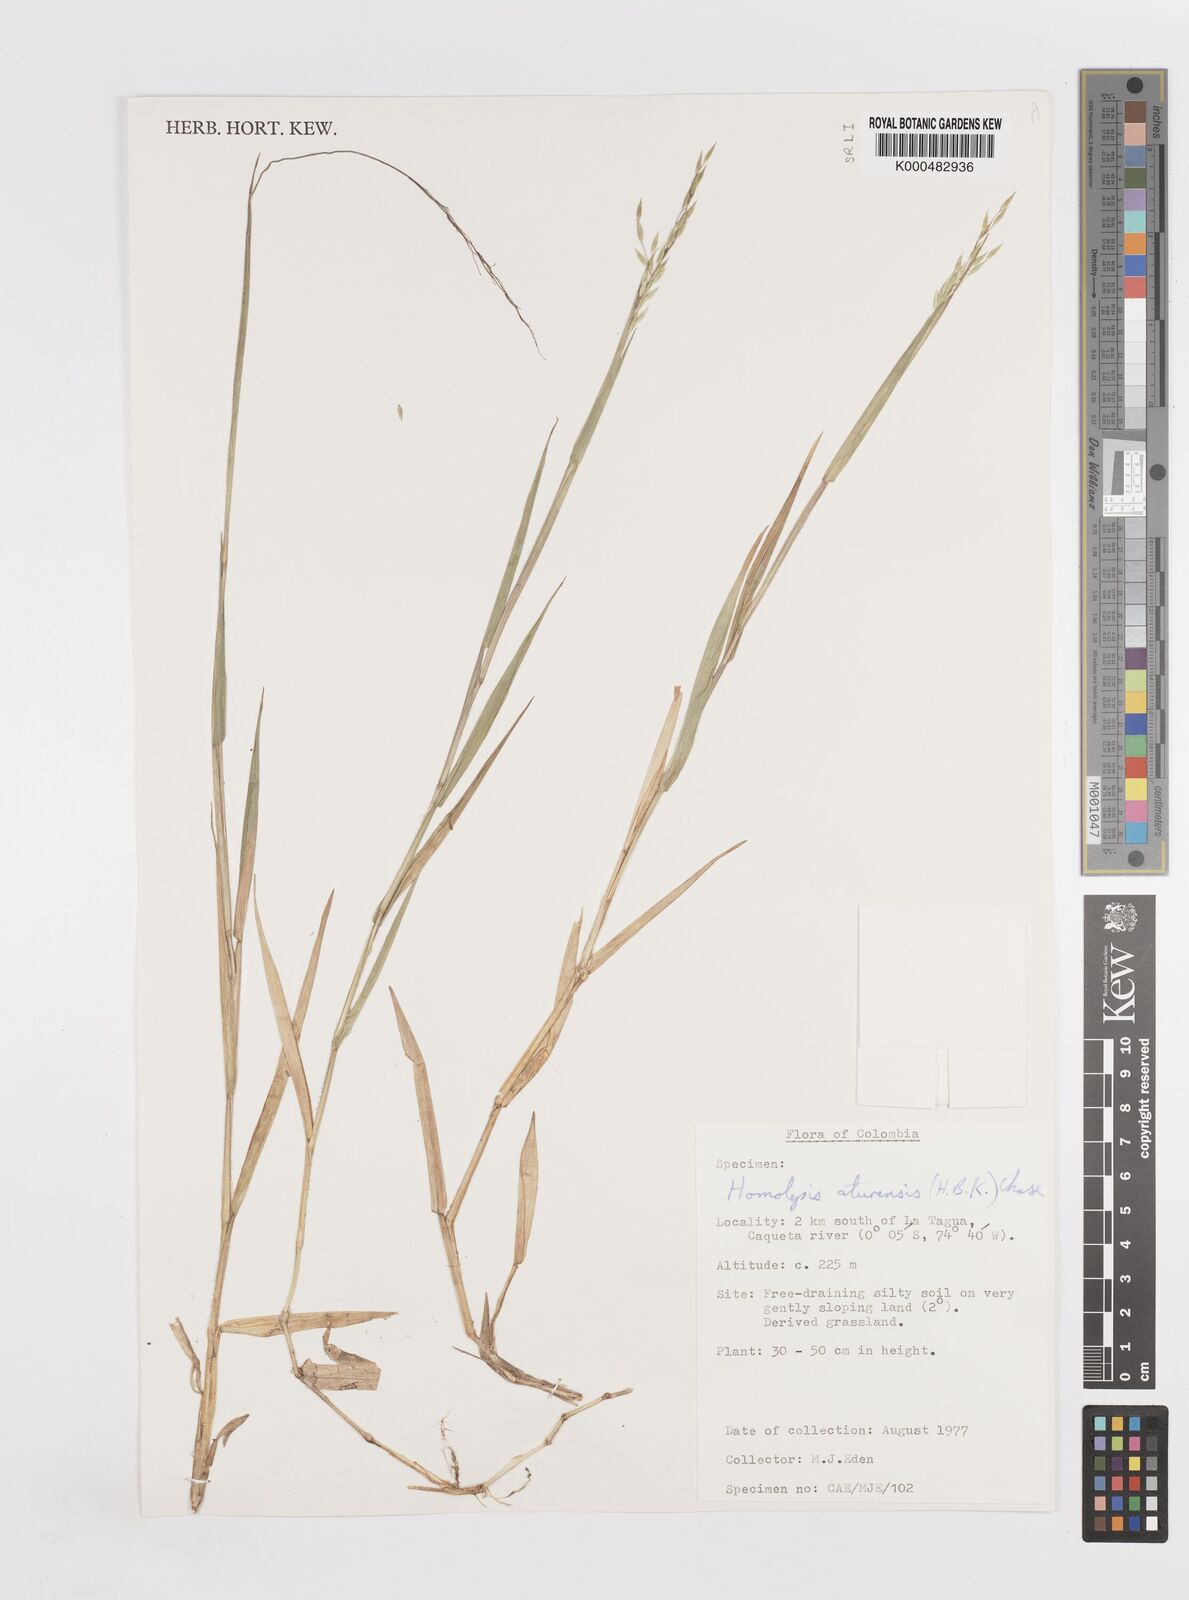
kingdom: Plantae
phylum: Tracheophyta
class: Liliopsida
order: Poales
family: Poaceae
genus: Homolepis
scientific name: Homolepis aturensis
